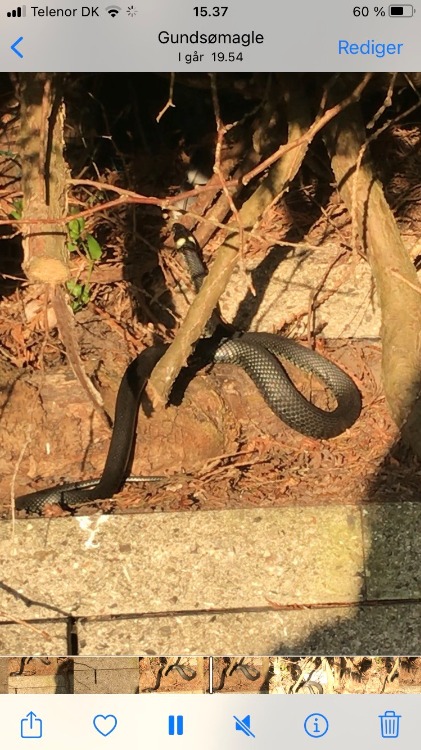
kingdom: Animalia
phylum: Chordata
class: Squamata
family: Colubridae
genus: Natrix
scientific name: Natrix natrix
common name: Snog
